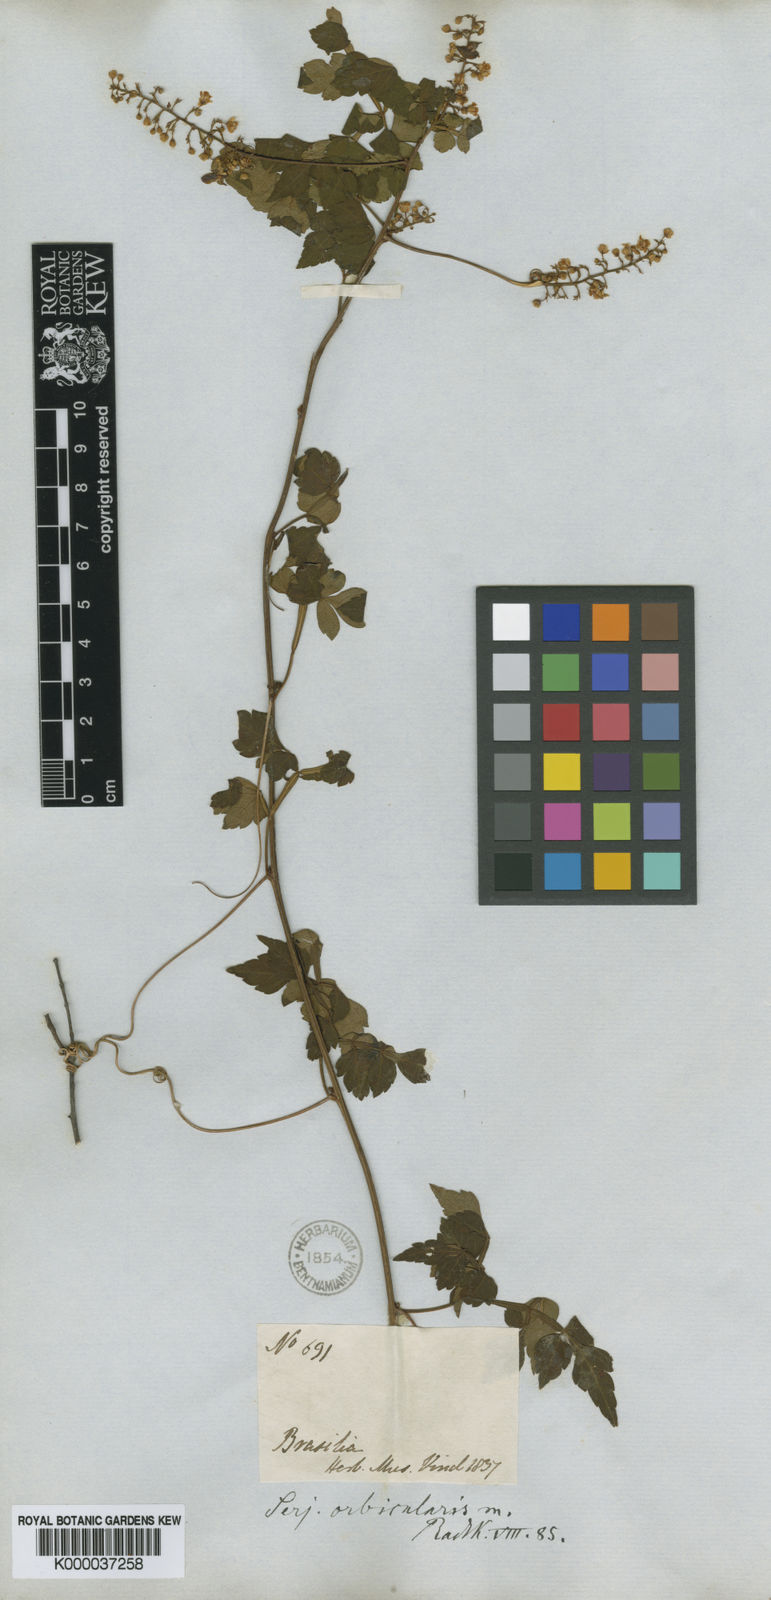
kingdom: Plantae
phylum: Tracheophyta
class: Magnoliopsida
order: Sapindales
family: Sapindaceae
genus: Serjania
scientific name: Serjania orbicularis
